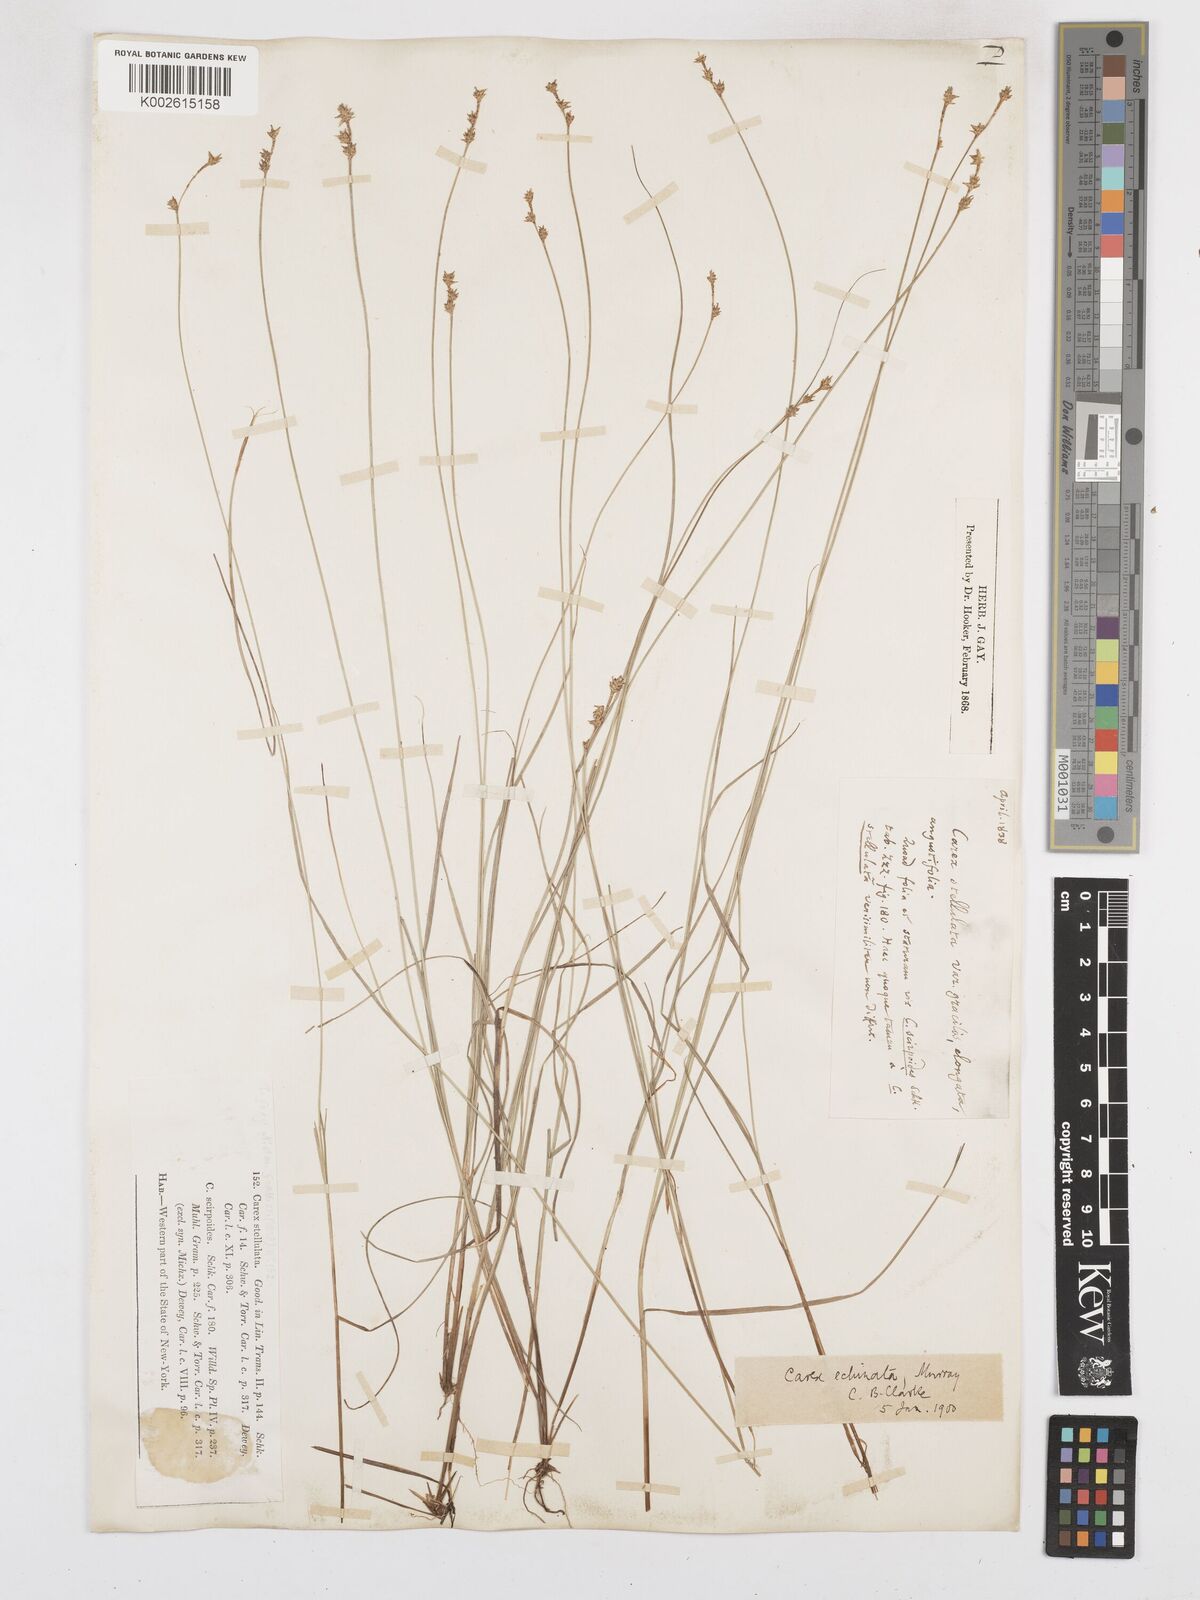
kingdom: Plantae
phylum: Tracheophyta
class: Liliopsida
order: Poales
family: Cyperaceae
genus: Carex
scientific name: Carex echinata
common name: Star sedge
